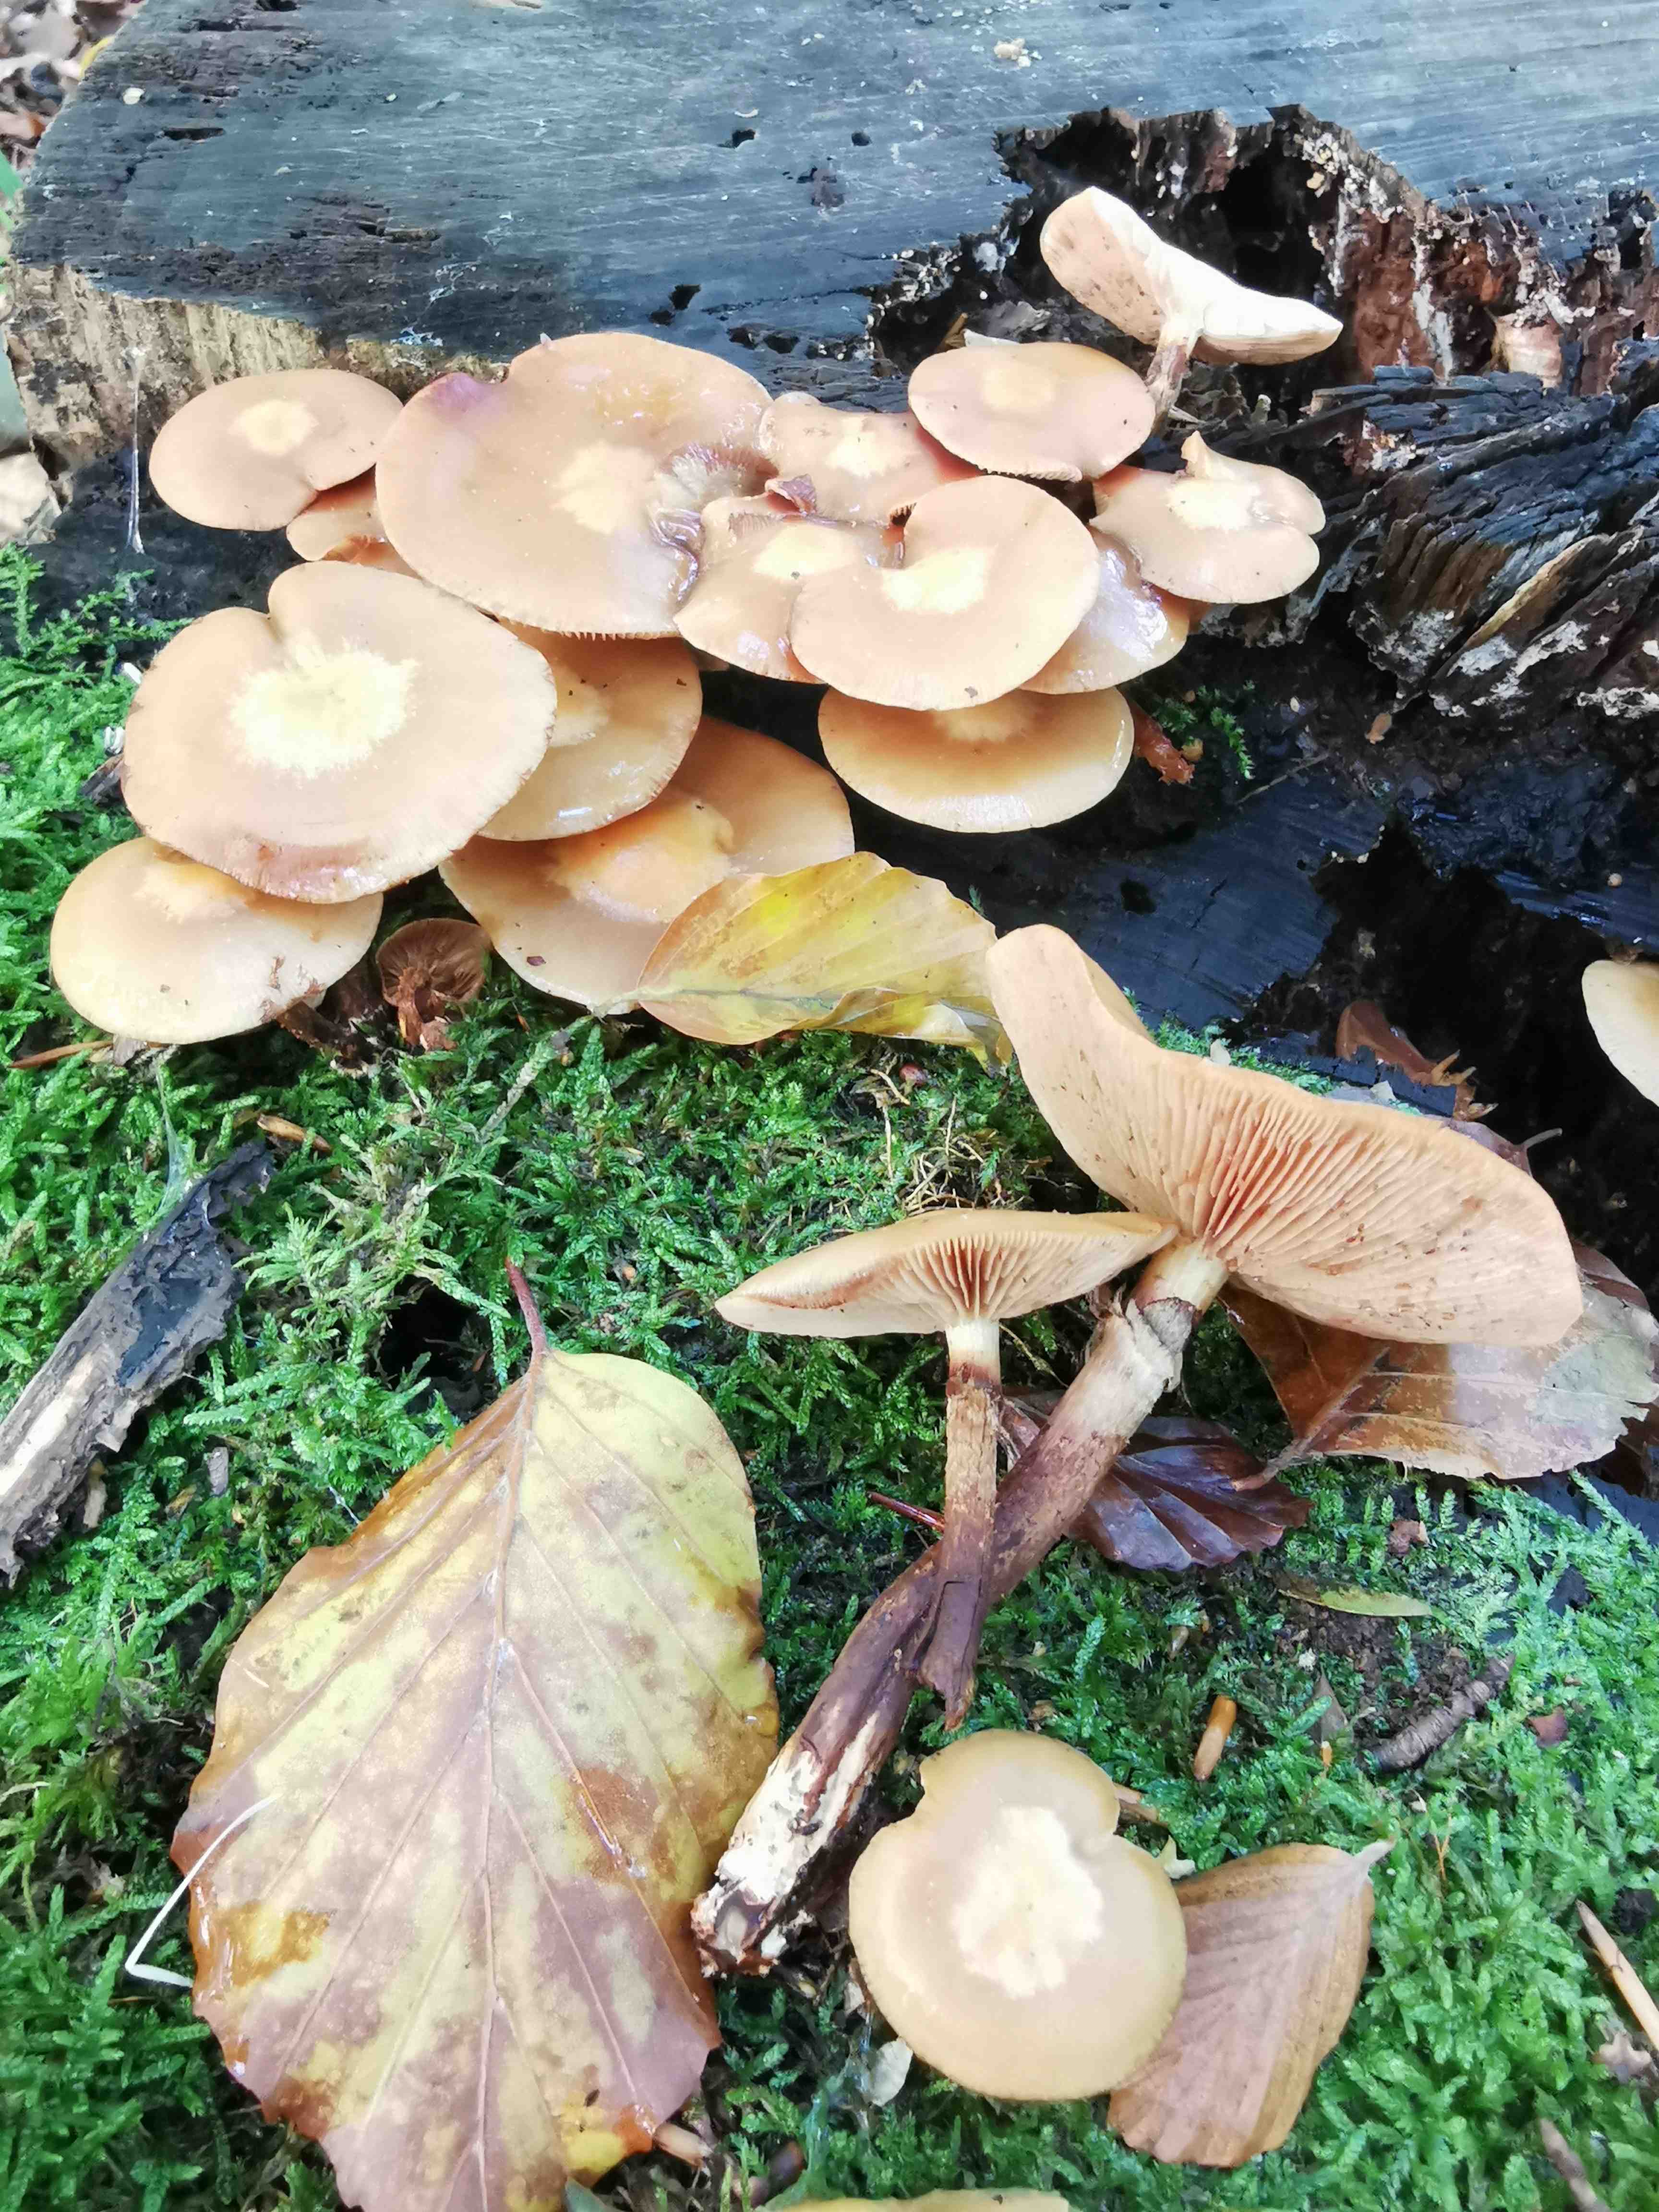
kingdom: Fungi
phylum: Basidiomycota
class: Agaricomycetes
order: Agaricales
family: Strophariaceae
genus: Kuehneromyces
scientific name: Kuehneromyces mutabilis
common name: foranderlig skælhat
